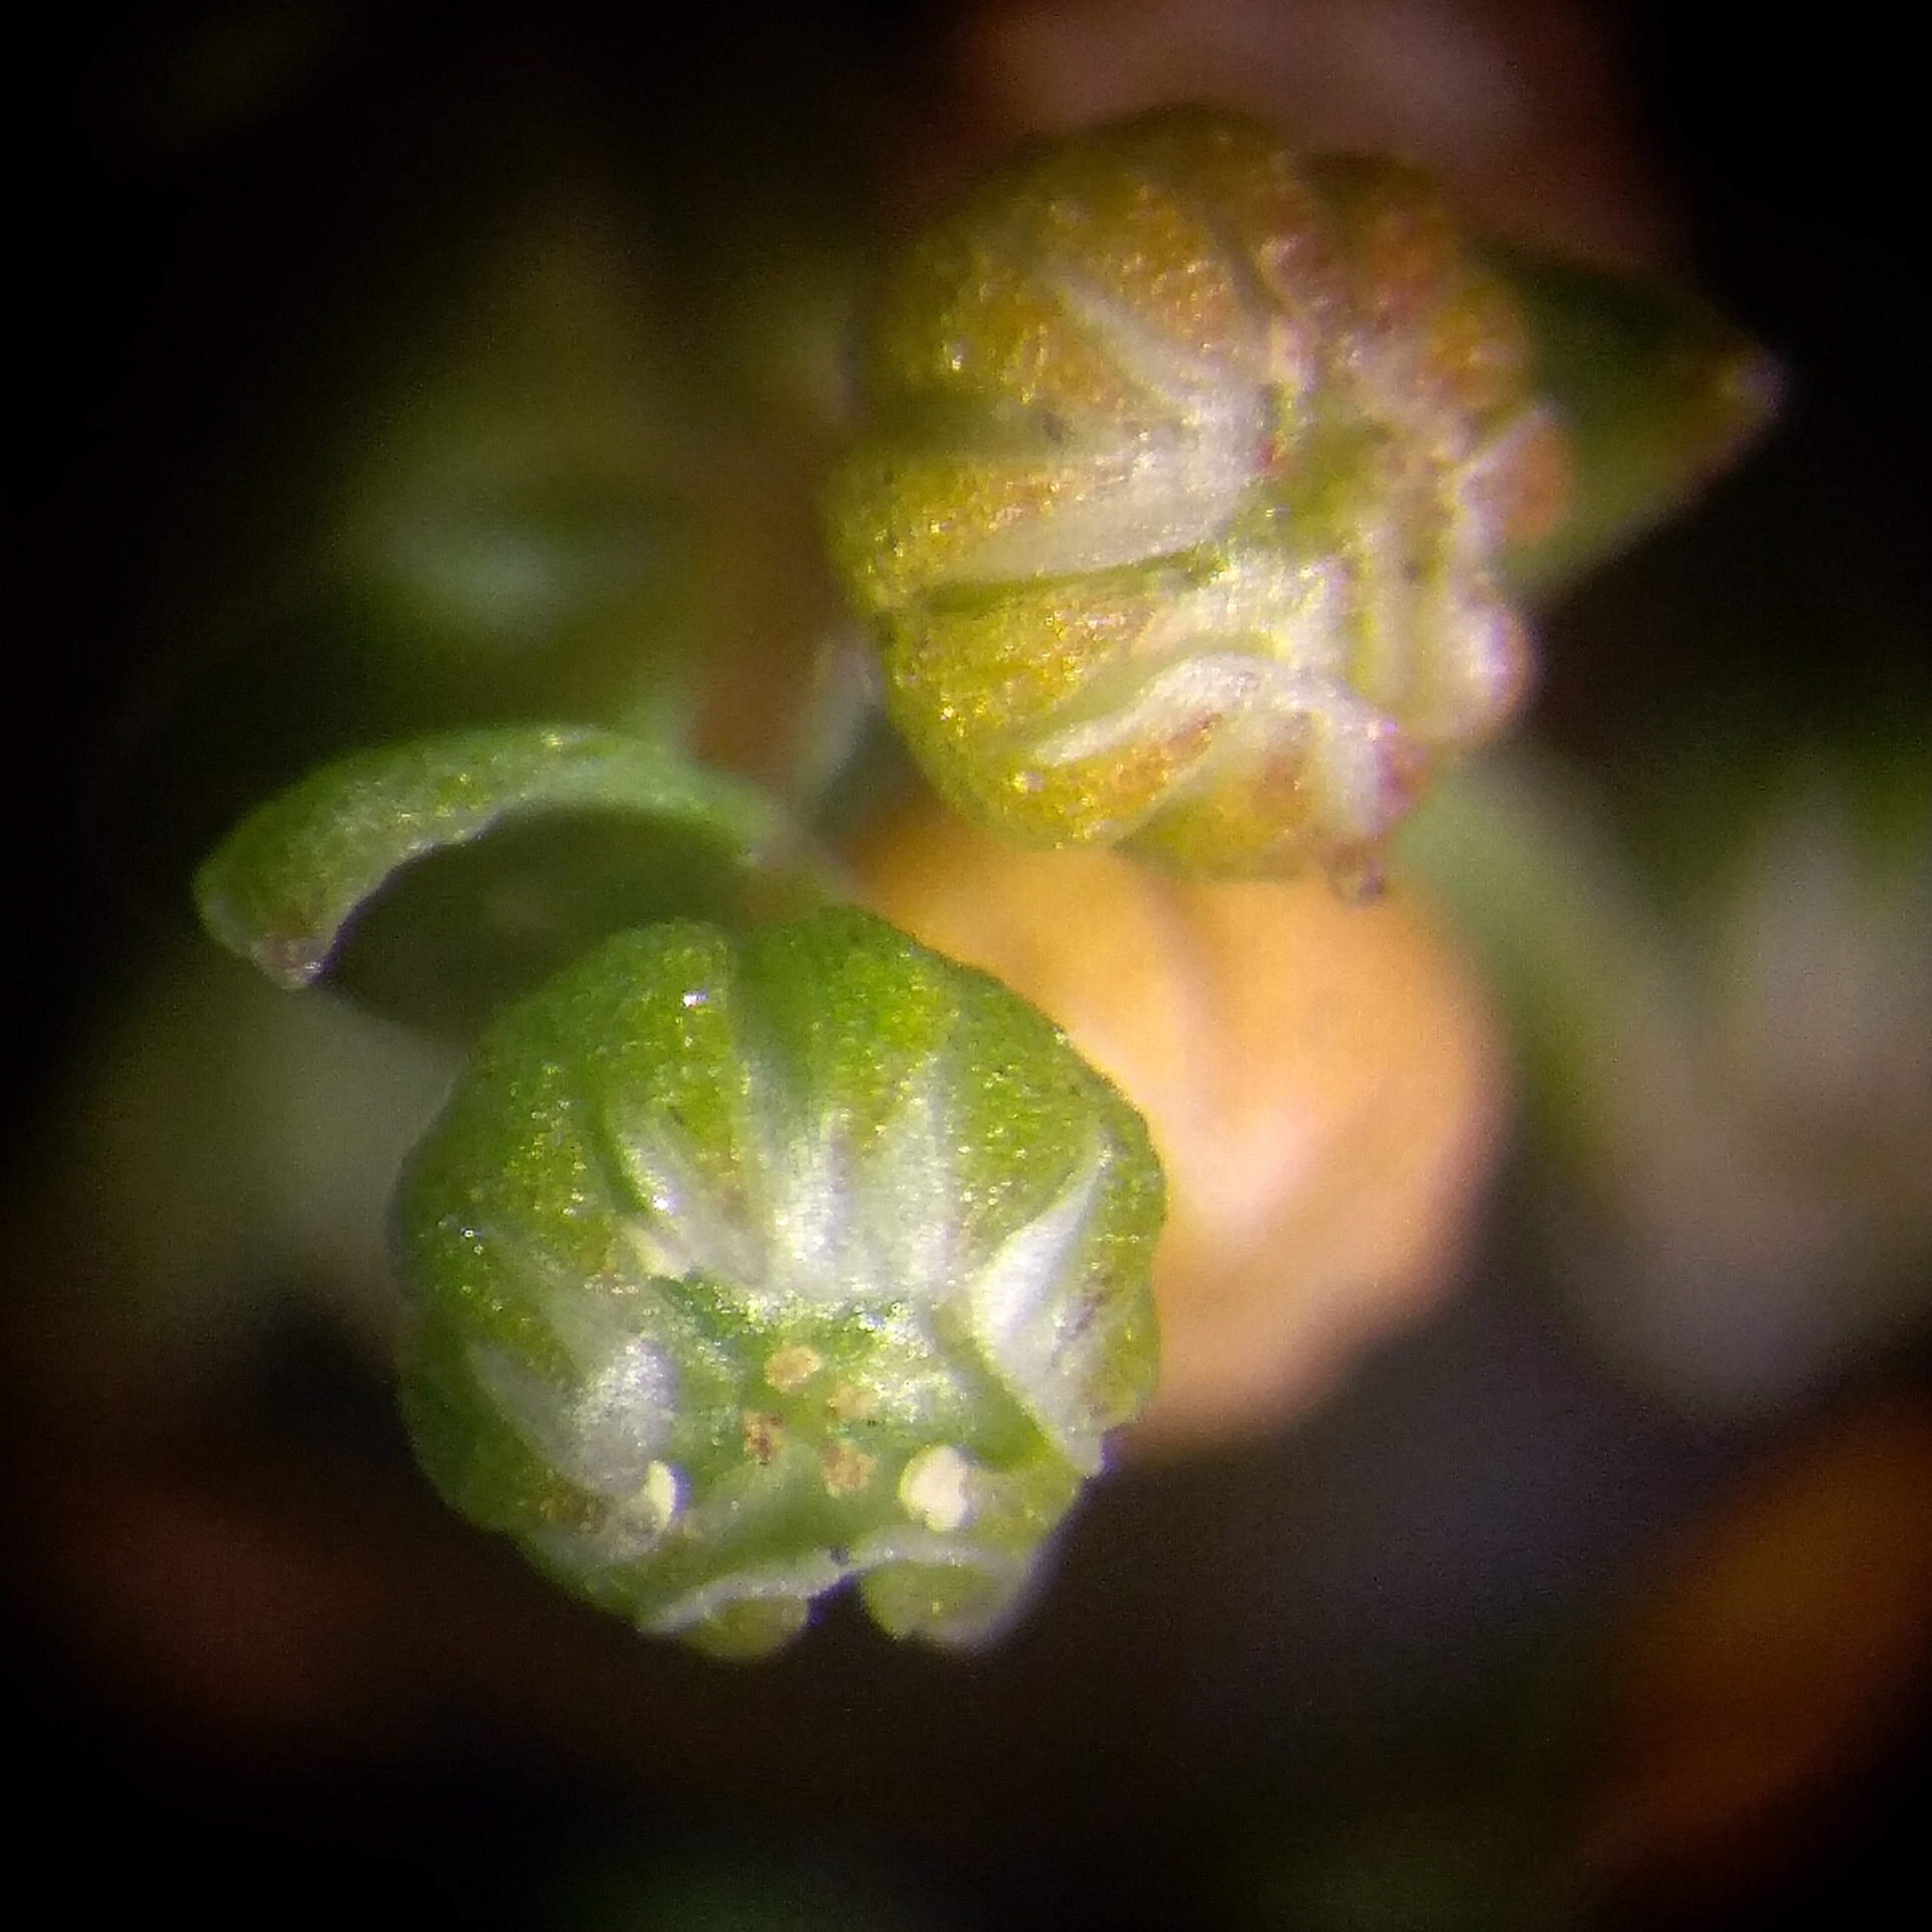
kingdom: Plantae
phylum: Tracheophyta
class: Magnoliopsida
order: Malpighiales
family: Linaceae
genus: Radiola
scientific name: Radiola linoides
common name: Tusindfrø
